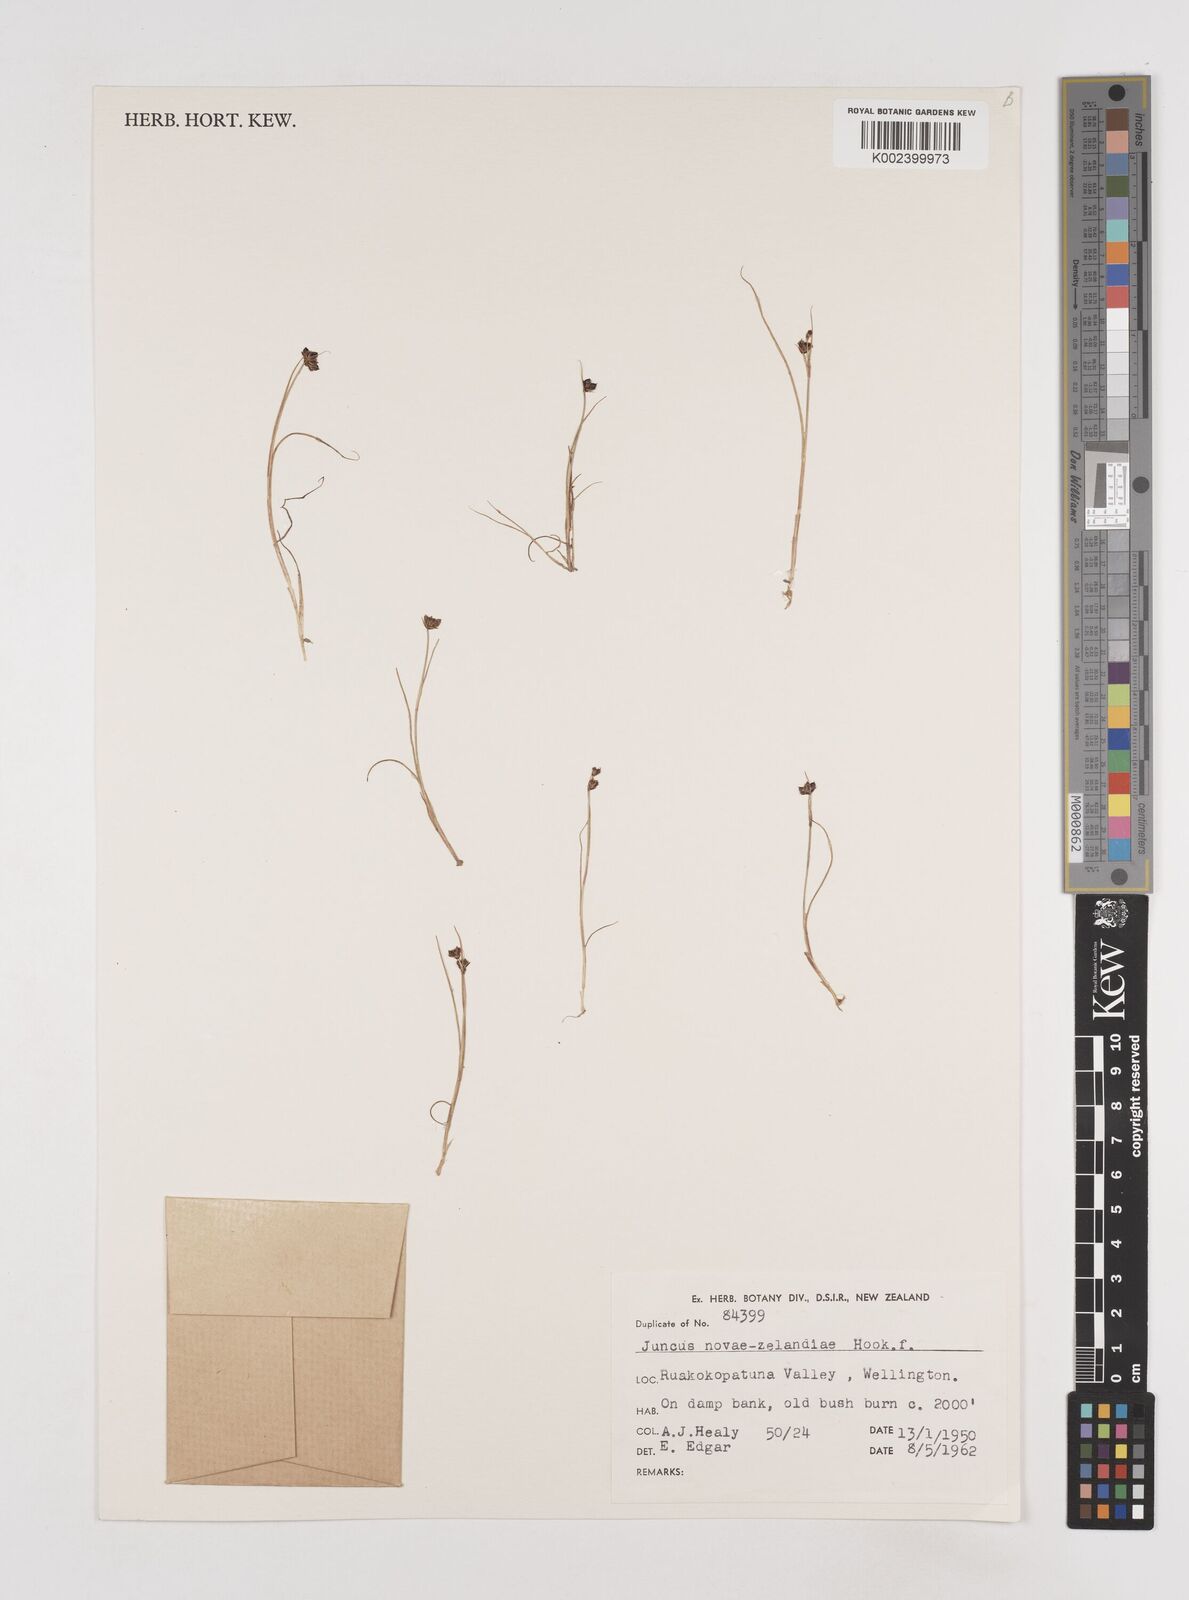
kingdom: Plantae
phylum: Tracheophyta
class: Liliopsida
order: Poales
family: Juncaceae
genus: Juncus
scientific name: Juncus novae-zelandiae
